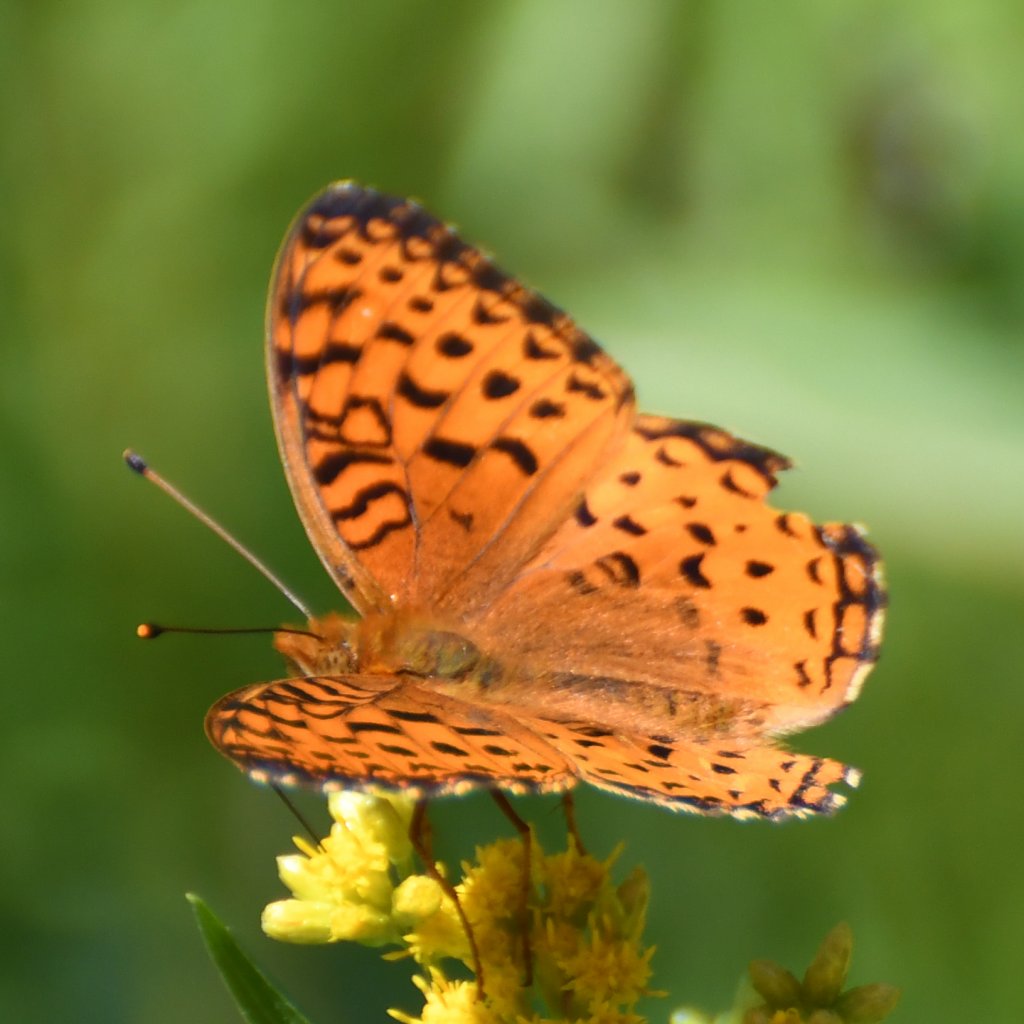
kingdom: Animalia
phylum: Arthropoda
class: Insecta
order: Lepidoptera
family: Nymphalidae
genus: Speyeria
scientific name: Speyeria aphrodite
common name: Aphrodite Fritillary
